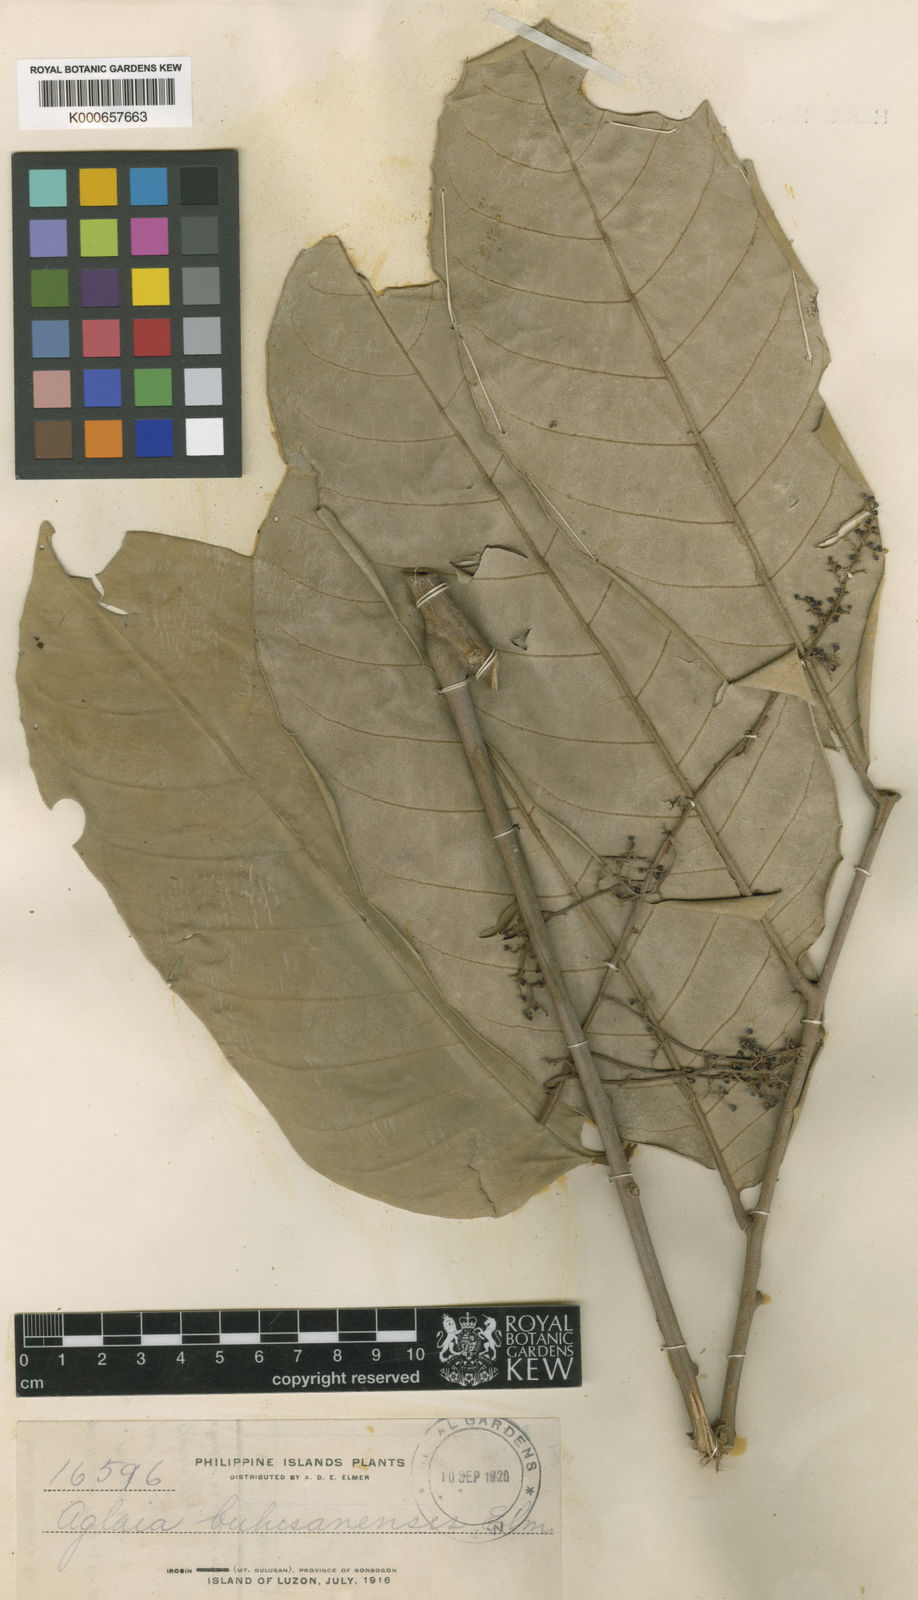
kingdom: Plantae
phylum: Tracheophyta
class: Magnoliopsida
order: Sapindales
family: Meliaceae
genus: Aglaia
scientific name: Aglaia rimosa
